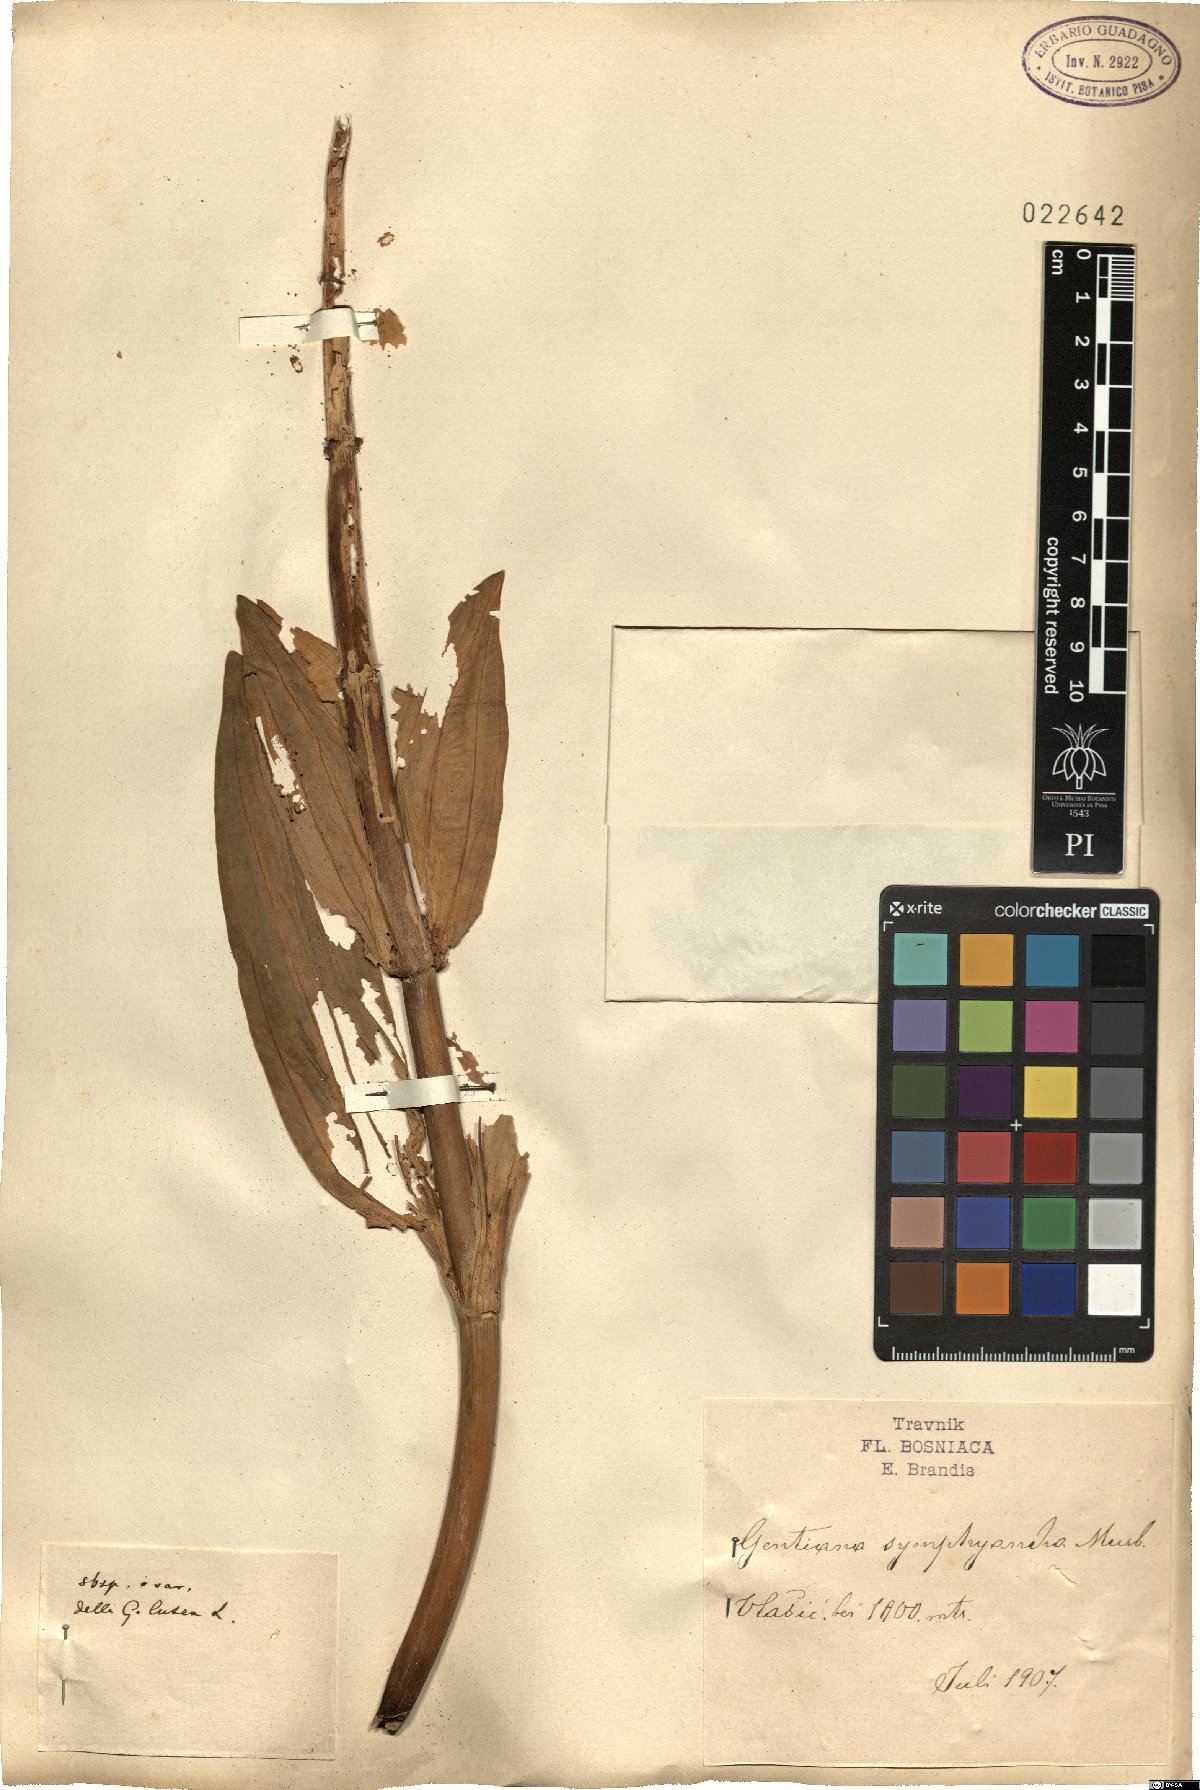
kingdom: Plantae
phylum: Tracheophyta
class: Magnoliopsida
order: Gentianales
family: Gentianaceae
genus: Gentiana
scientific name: Gentiana lutea
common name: Great yellow gentian
